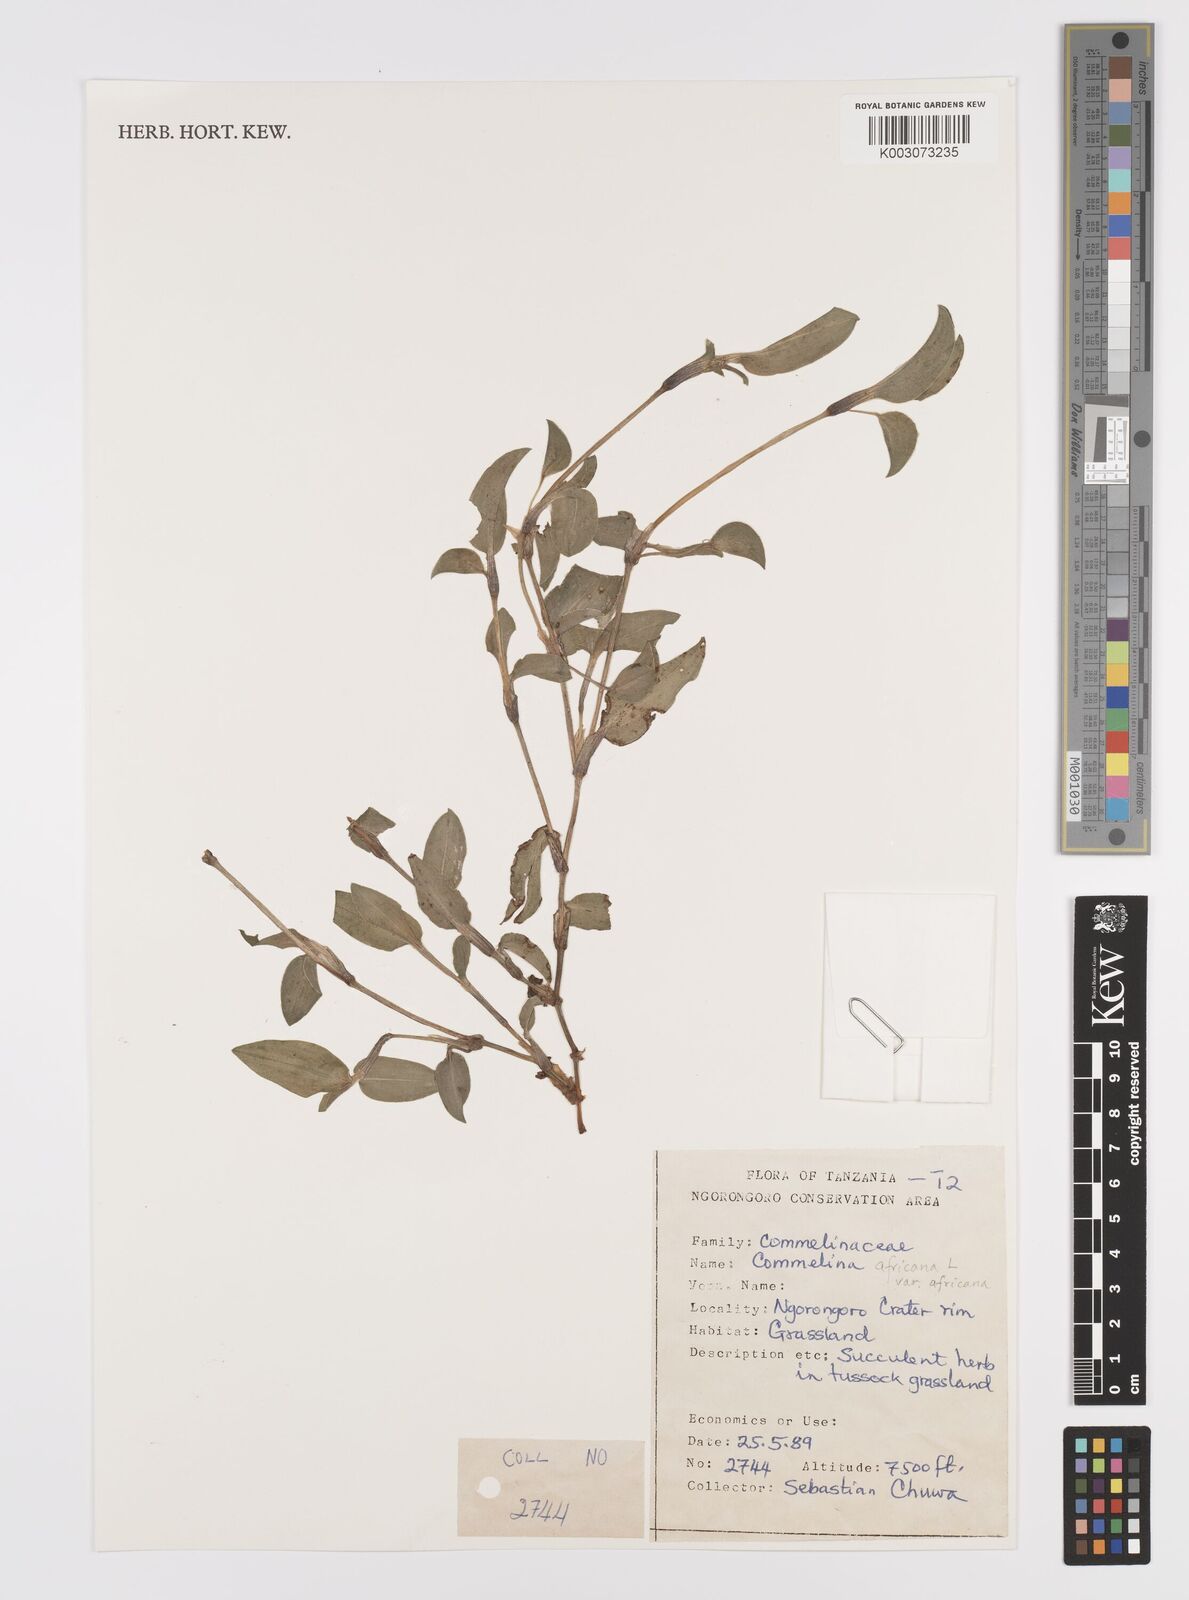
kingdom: Plantae
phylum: Tracheophyta
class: Liliopsida
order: Commelinales
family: Commelinaceae
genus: Commelina
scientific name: Commelina africana
